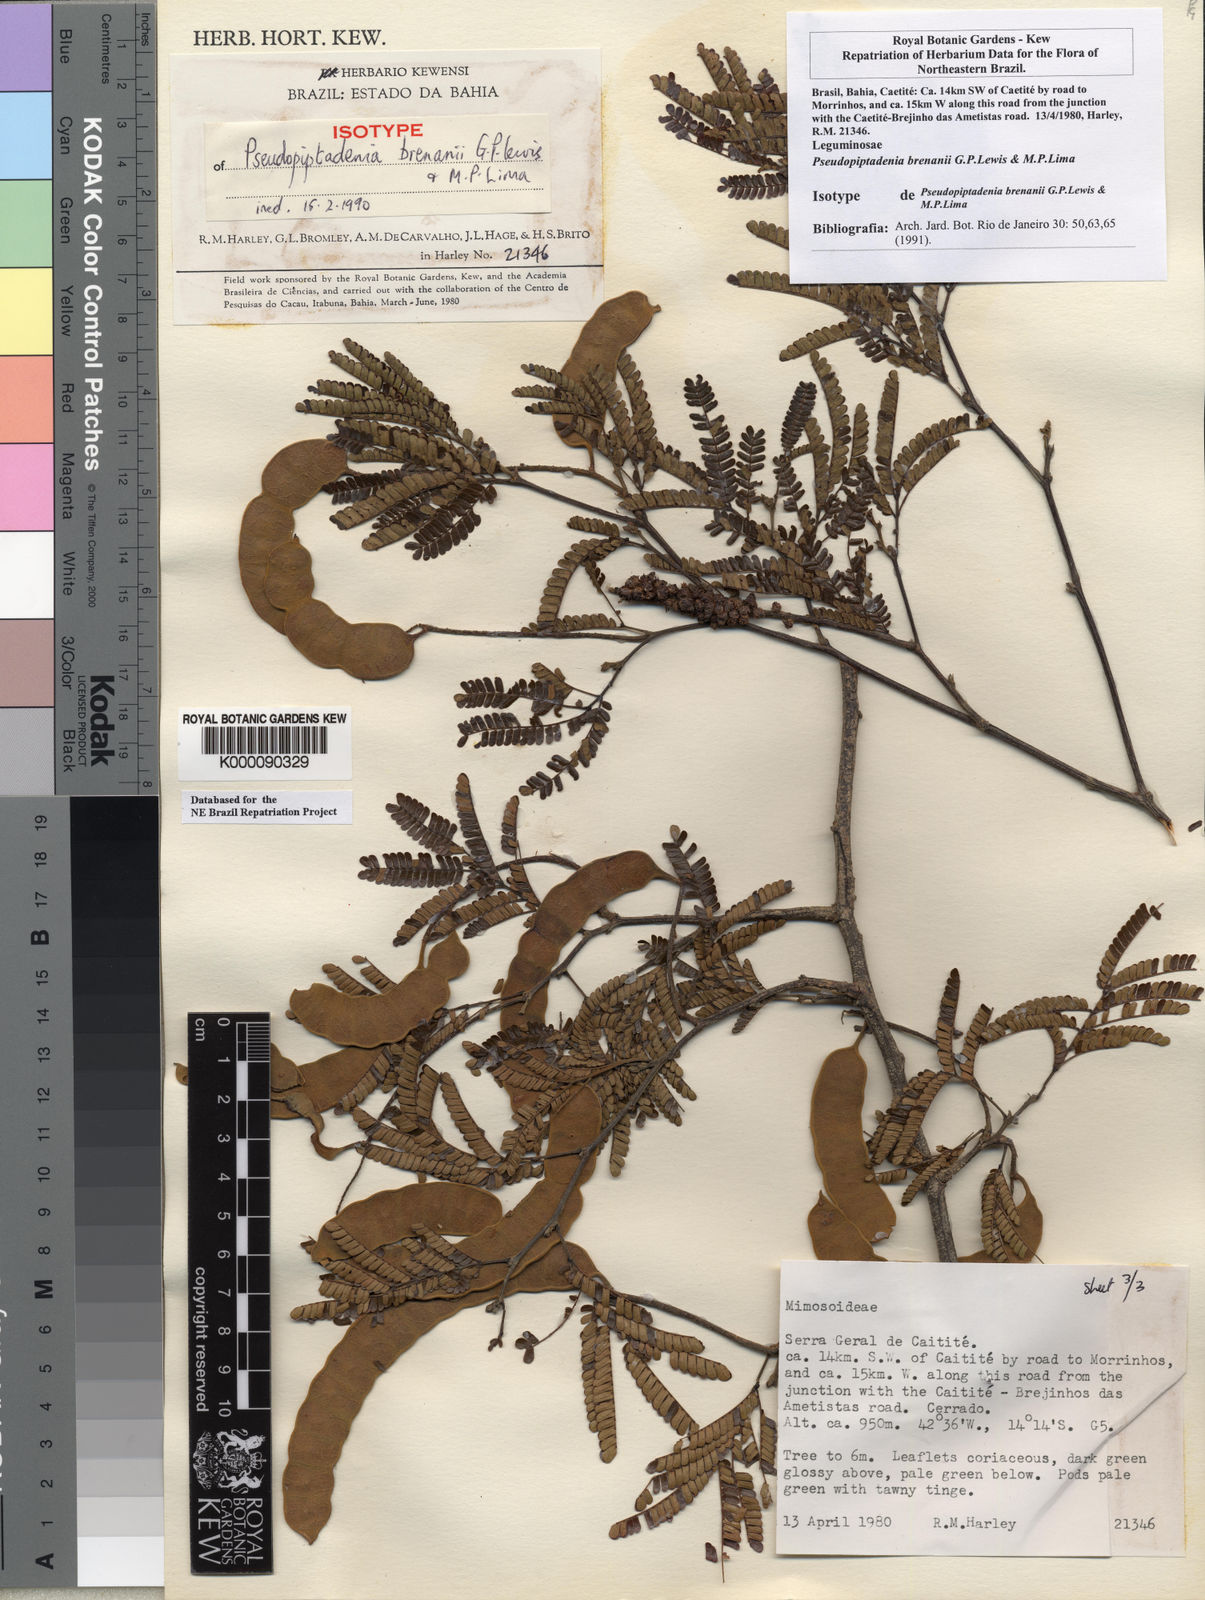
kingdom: Plantae
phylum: Tracheophyta
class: Magnoliopsida
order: Fabales
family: Fabaceae
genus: Pseudopiptadenia
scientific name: Pseudopiptadenia brenanii
